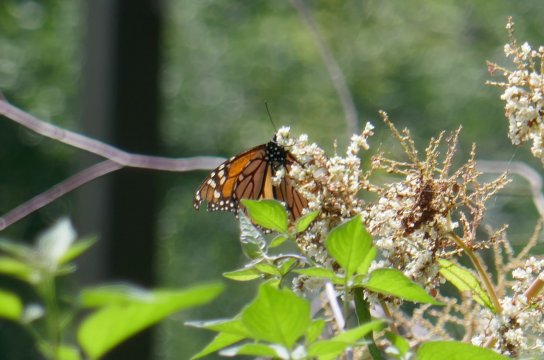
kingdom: Animalia
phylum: Arthropoda
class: Insecta
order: Lepidoptera
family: Nymphalidae
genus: Danaus
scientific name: Danaus plexippus
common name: Monarch
